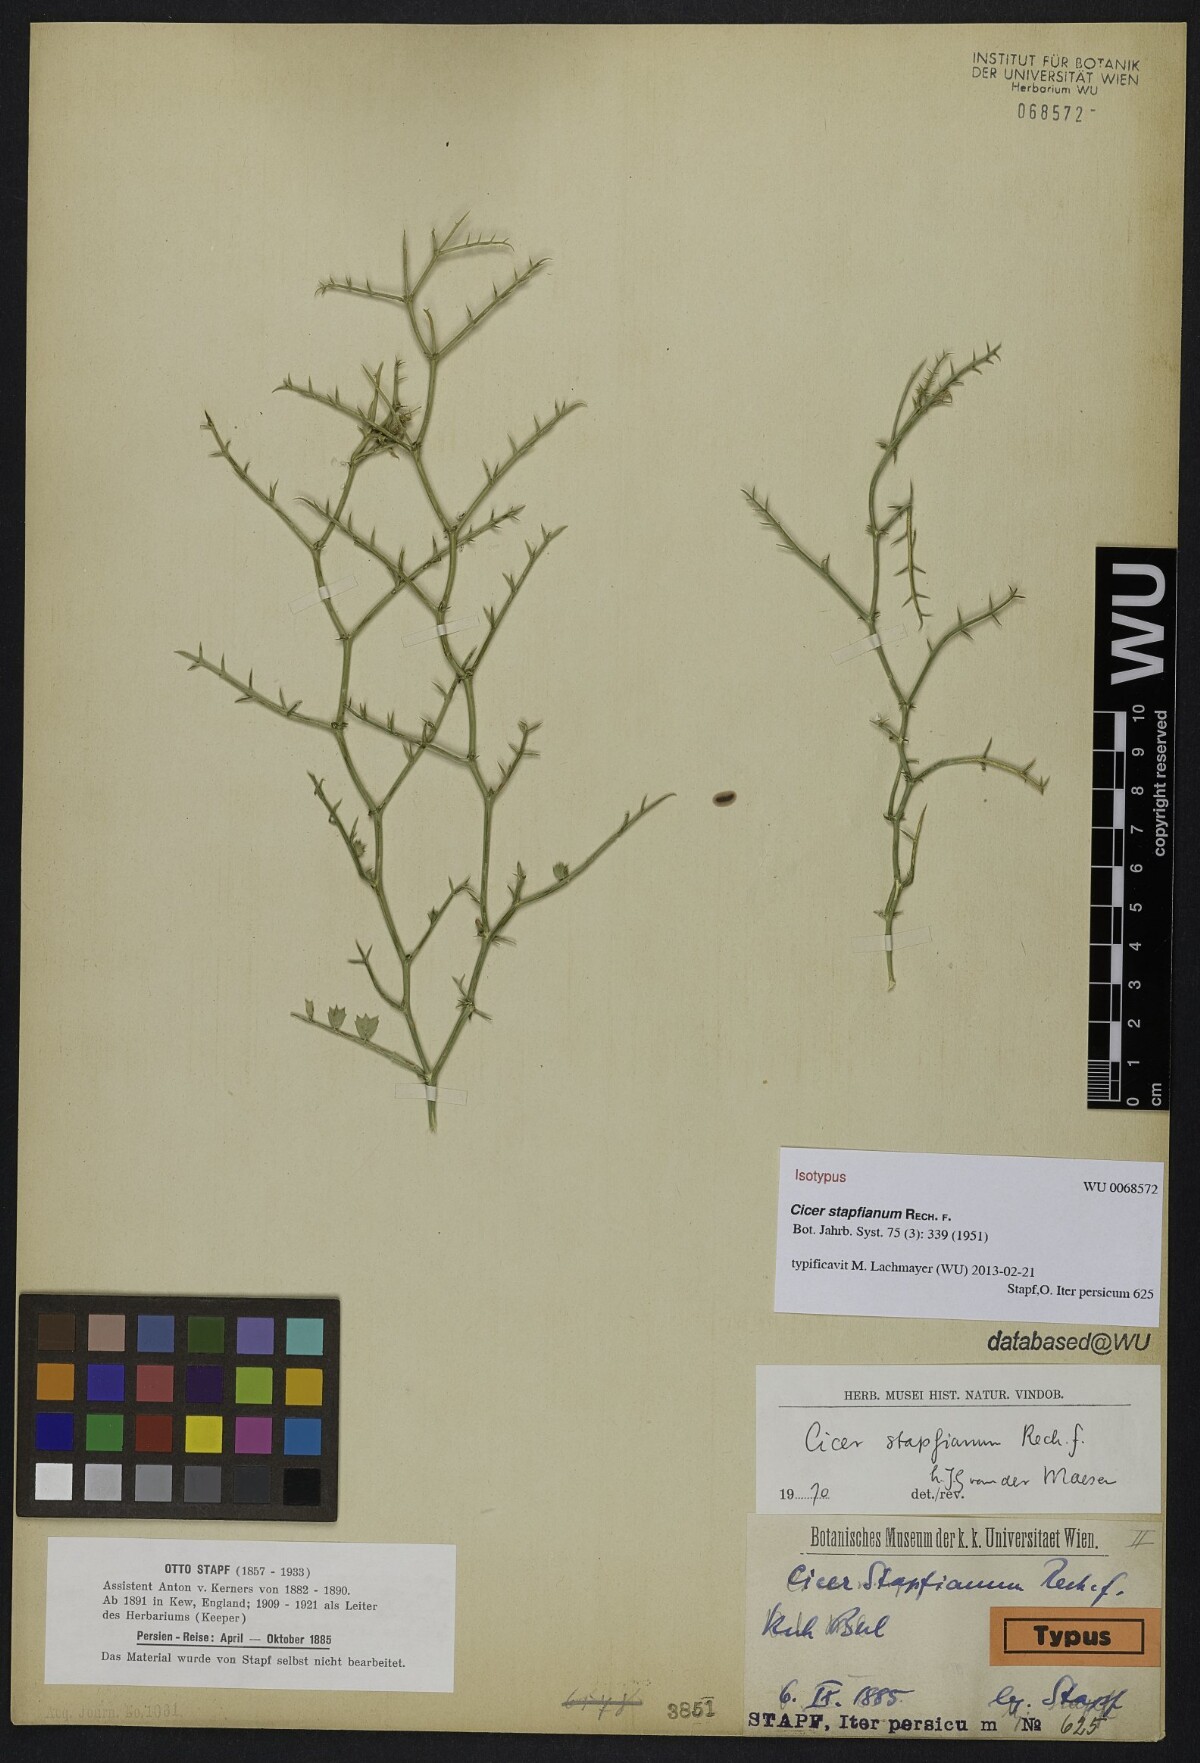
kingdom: Plantae
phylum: Tracheophyta
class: Magnoliopsida
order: Fabales
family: Fabaceae
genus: Cicer
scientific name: Cicer stapfianum
